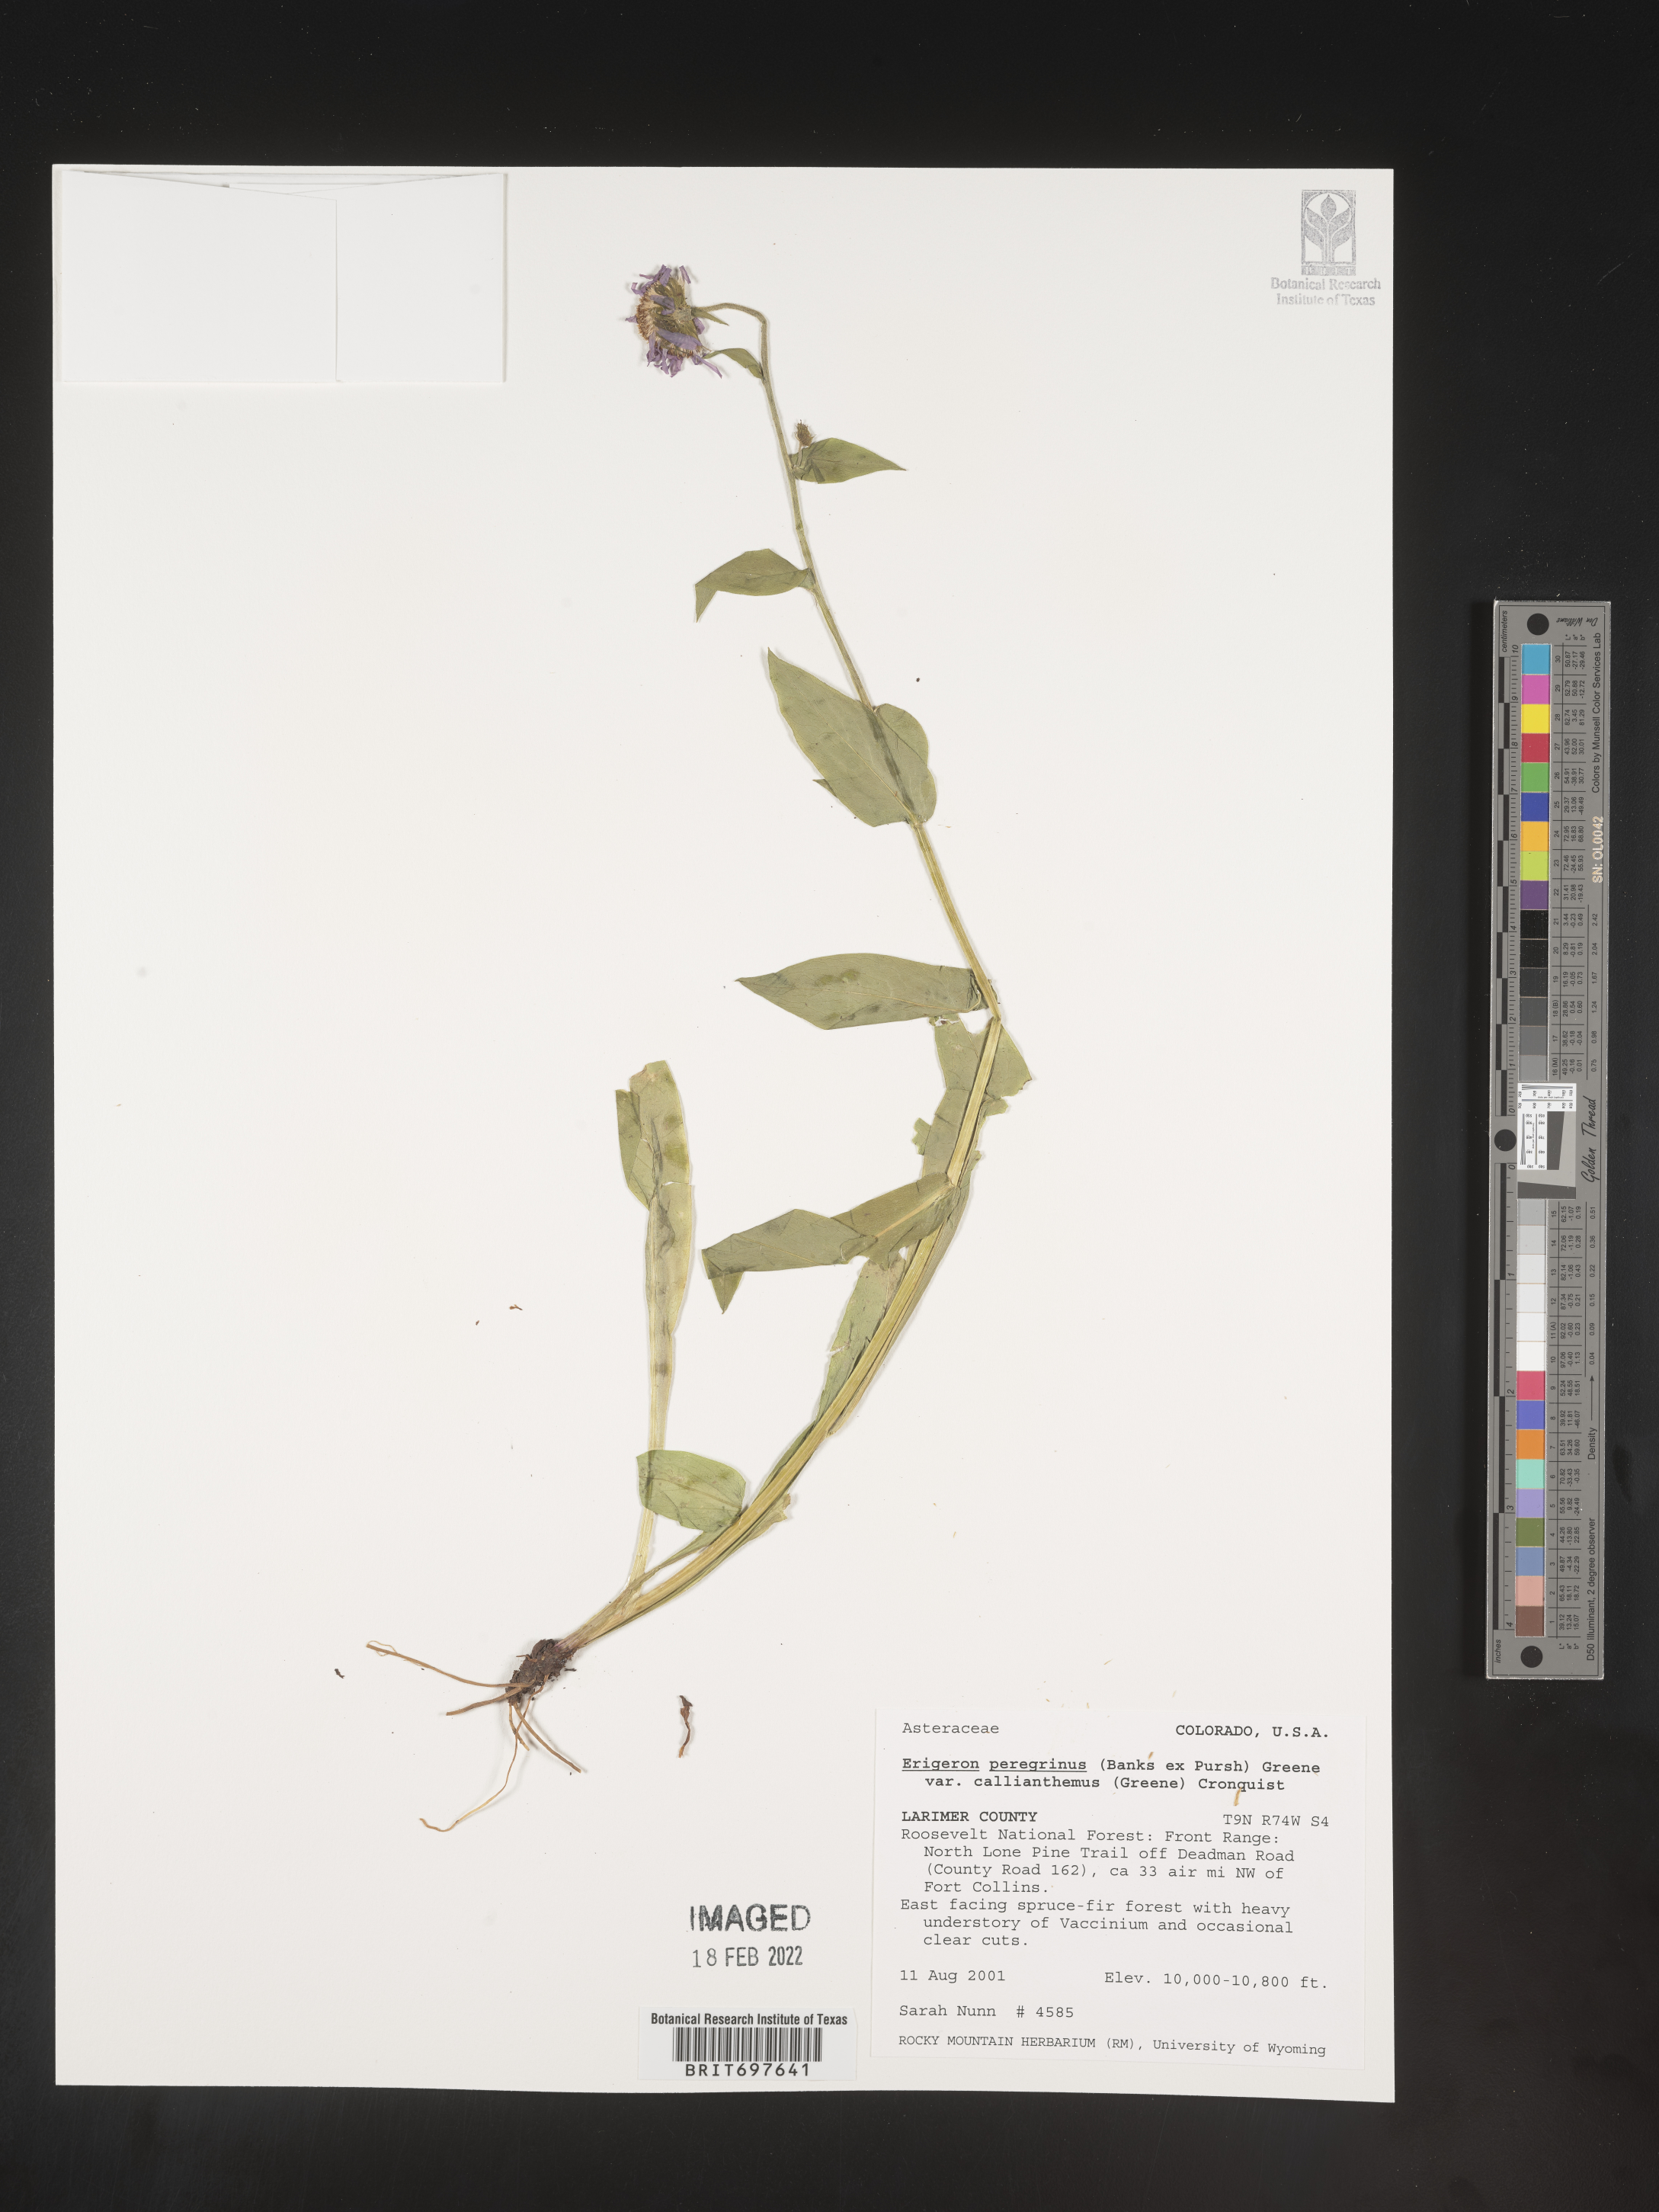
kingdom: Plantae
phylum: Tracheophyta
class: Magnoliopsida
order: Asterales
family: Asteraceae
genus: Erigeron
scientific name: Erigeron peregrinus
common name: Peregrine fleabane
